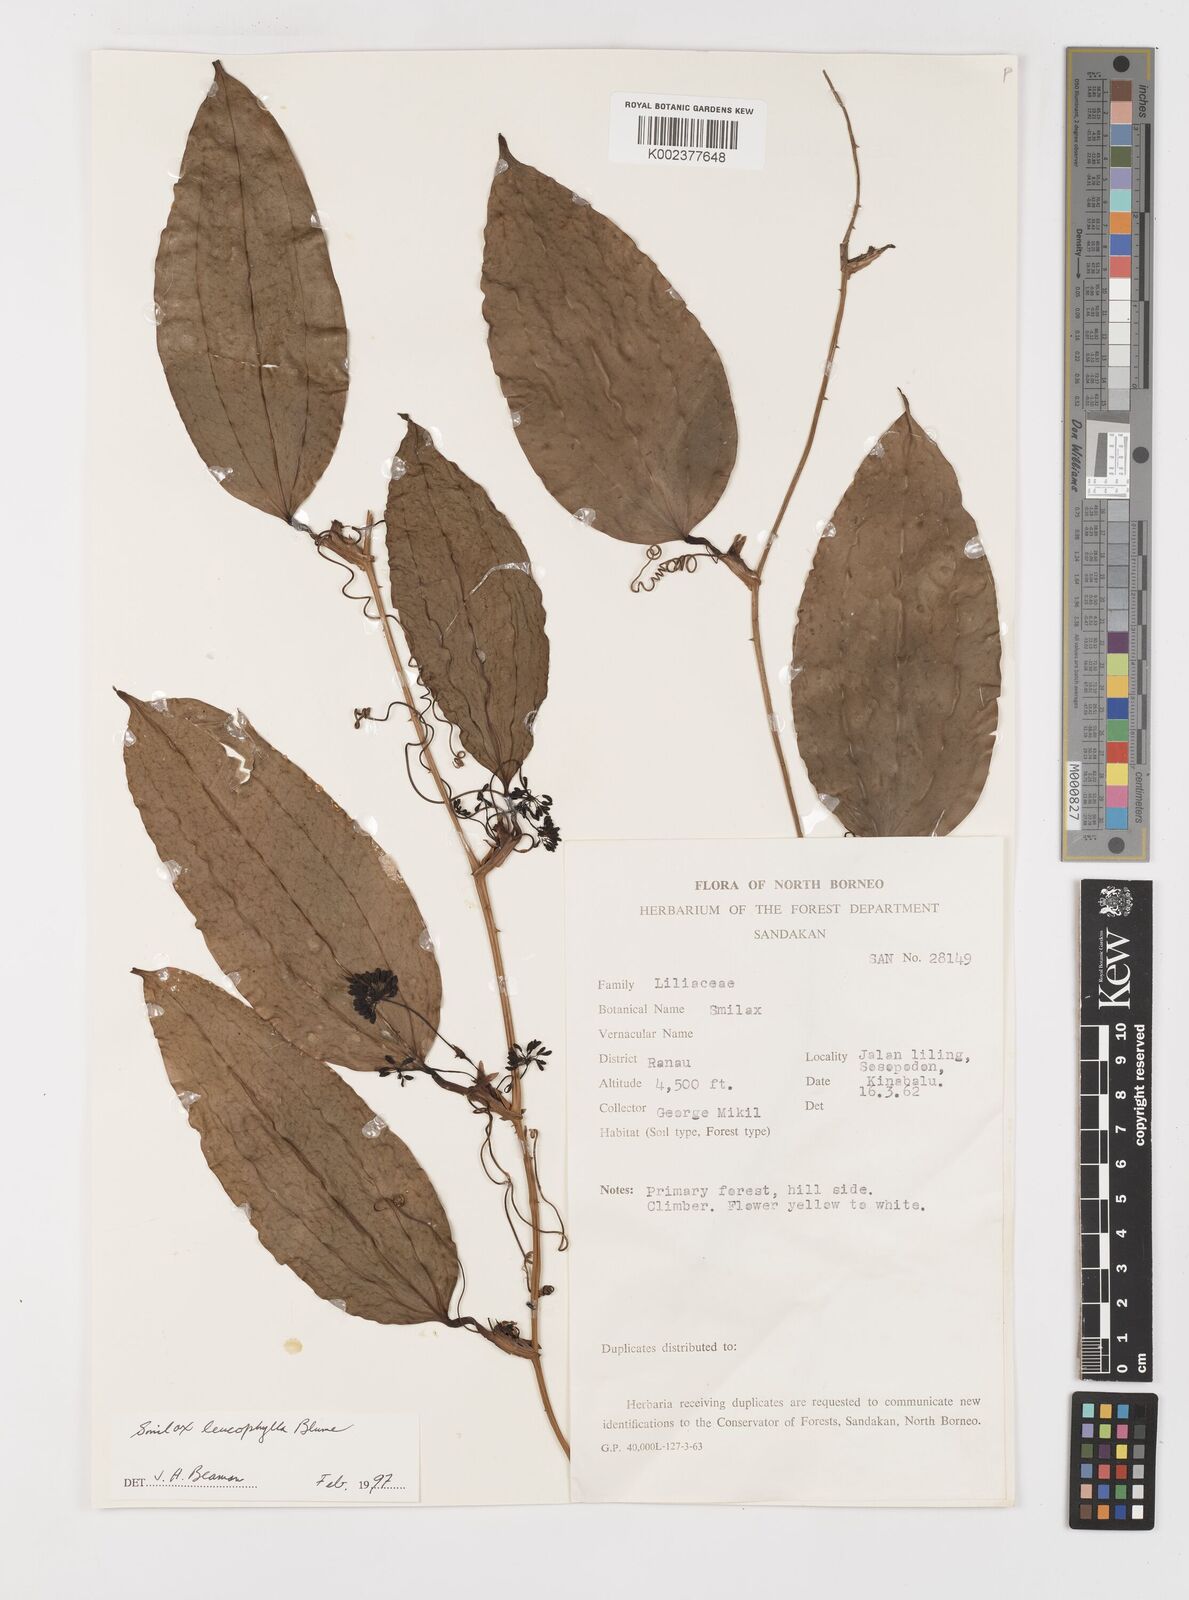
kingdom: Plantae
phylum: Tracheophyta
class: Liliopsida
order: Liliales
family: Smilacaceae
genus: Smilax
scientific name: Smilax
